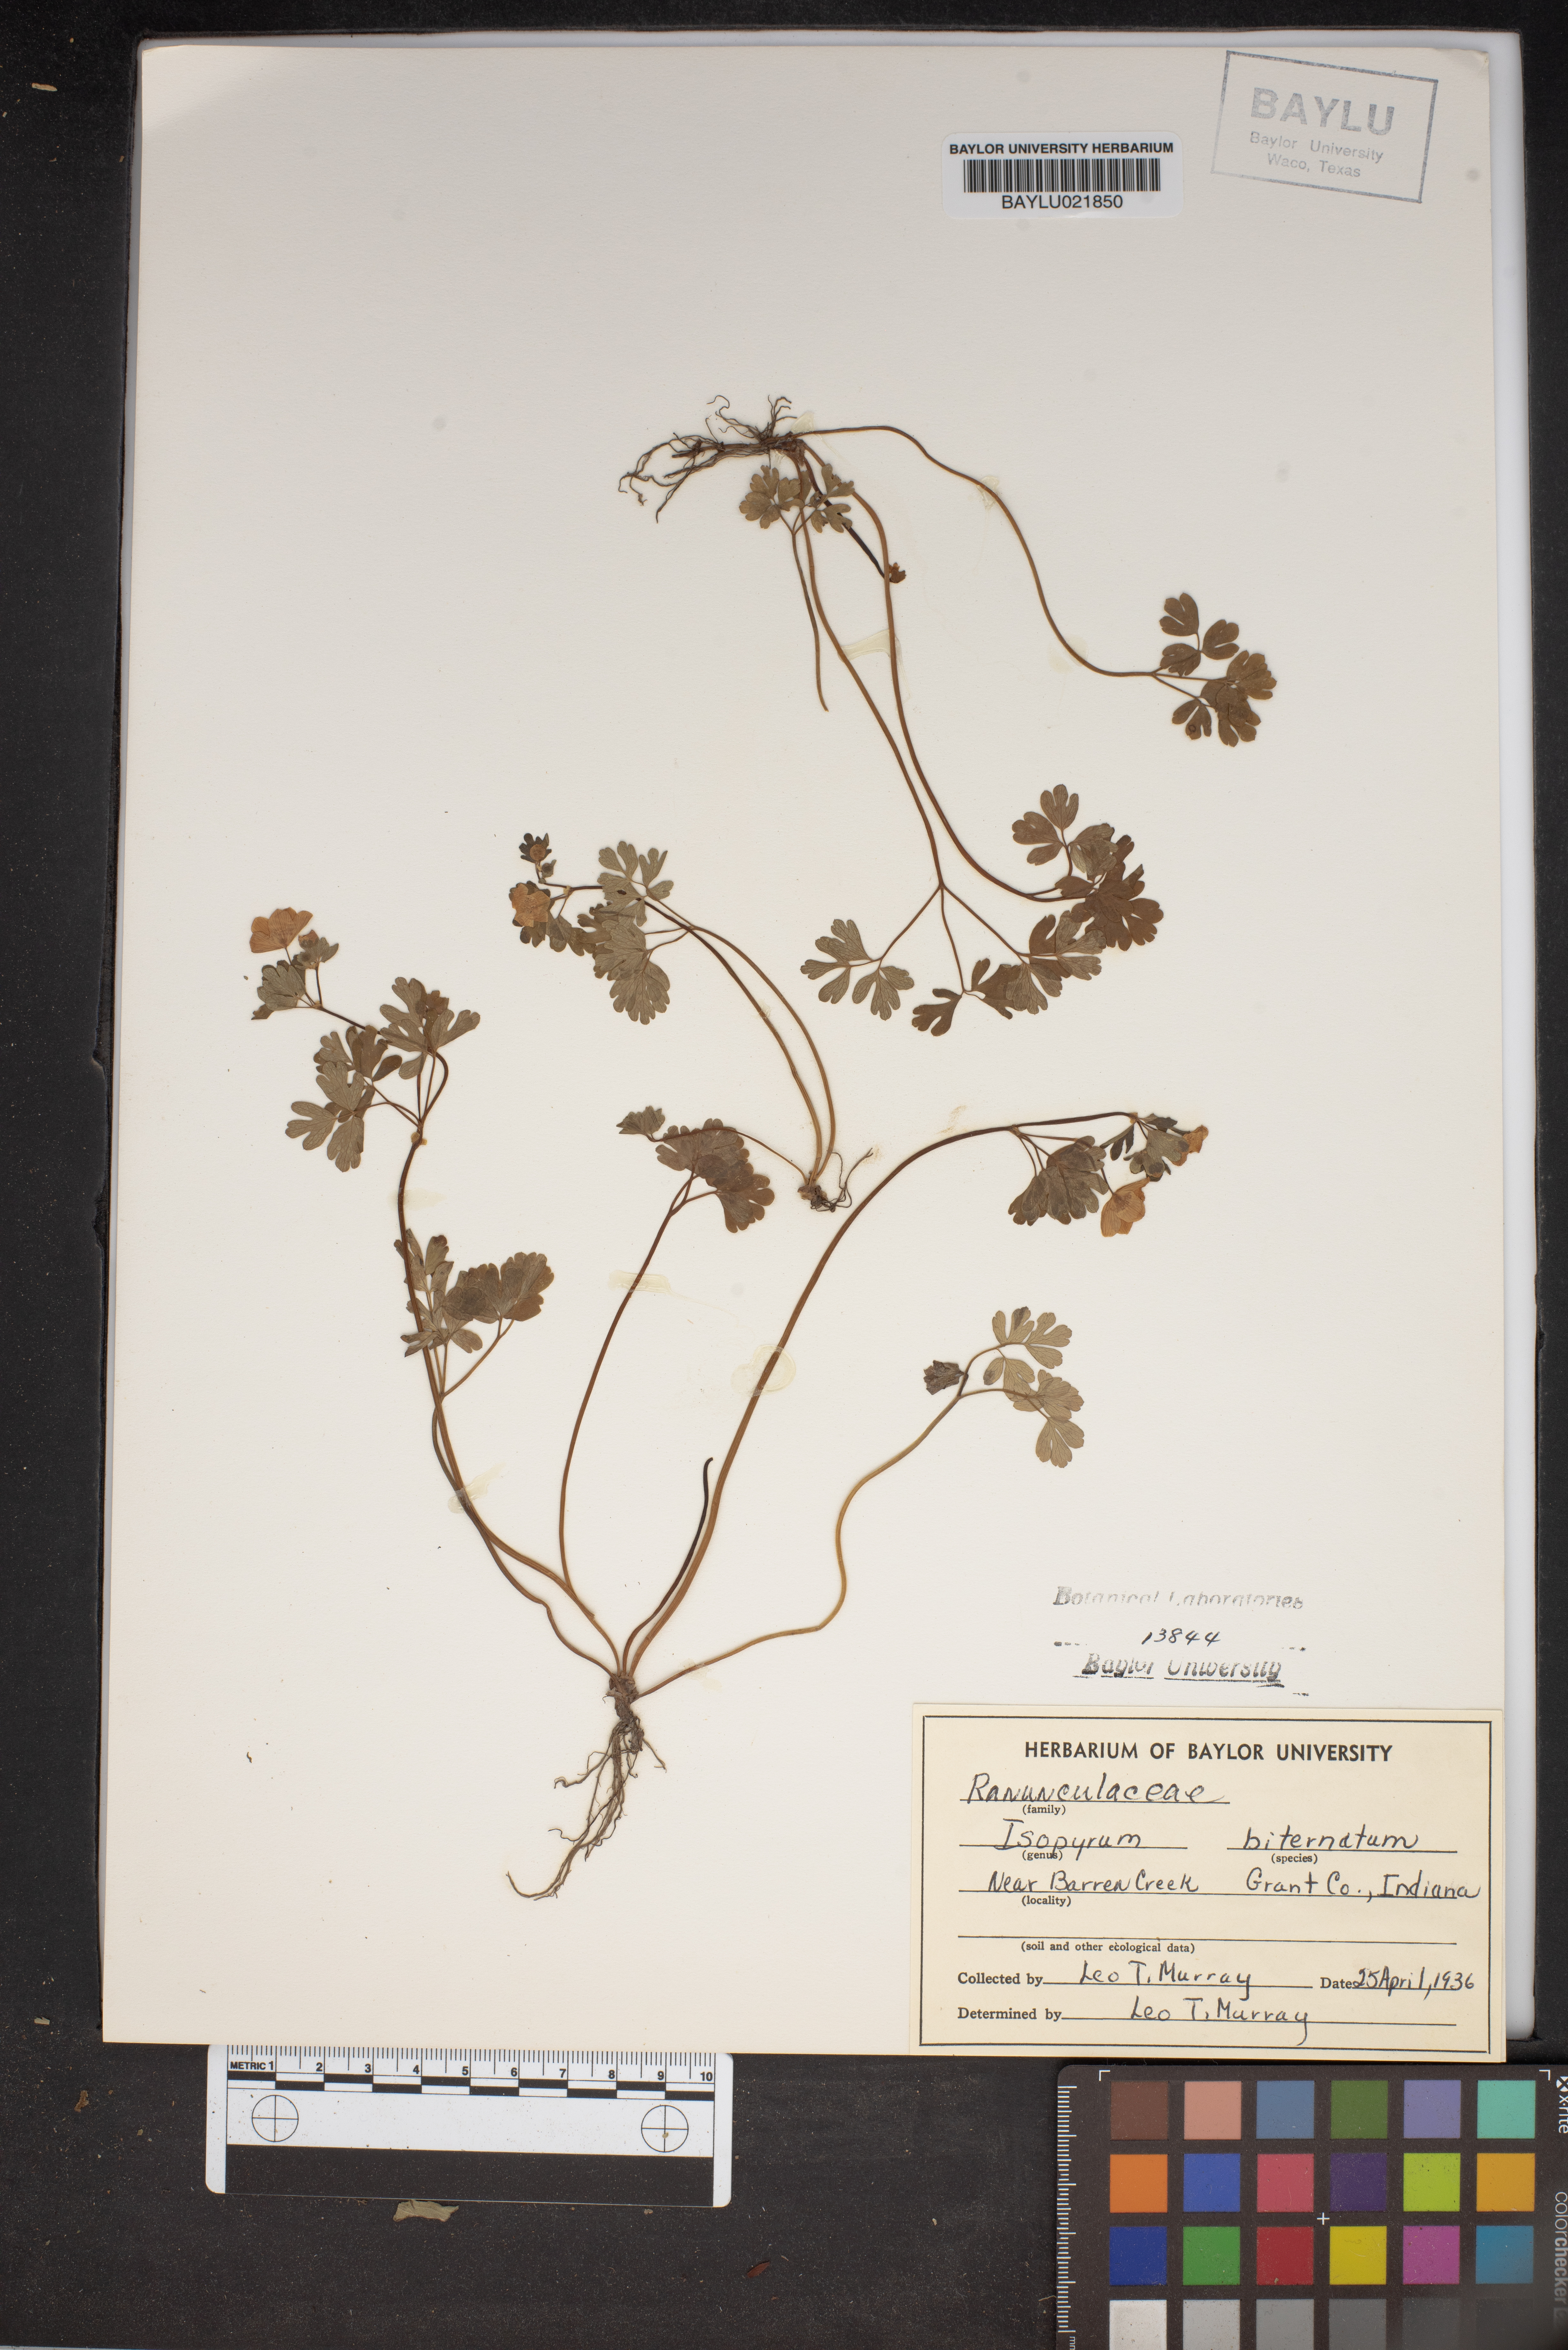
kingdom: Plantae
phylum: Tracheophyta
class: Magnoliopsida
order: Ranunculales
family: Ranunculaceae
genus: Enemion
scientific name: Enemion biternatum
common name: Eastern false rue-anemone
